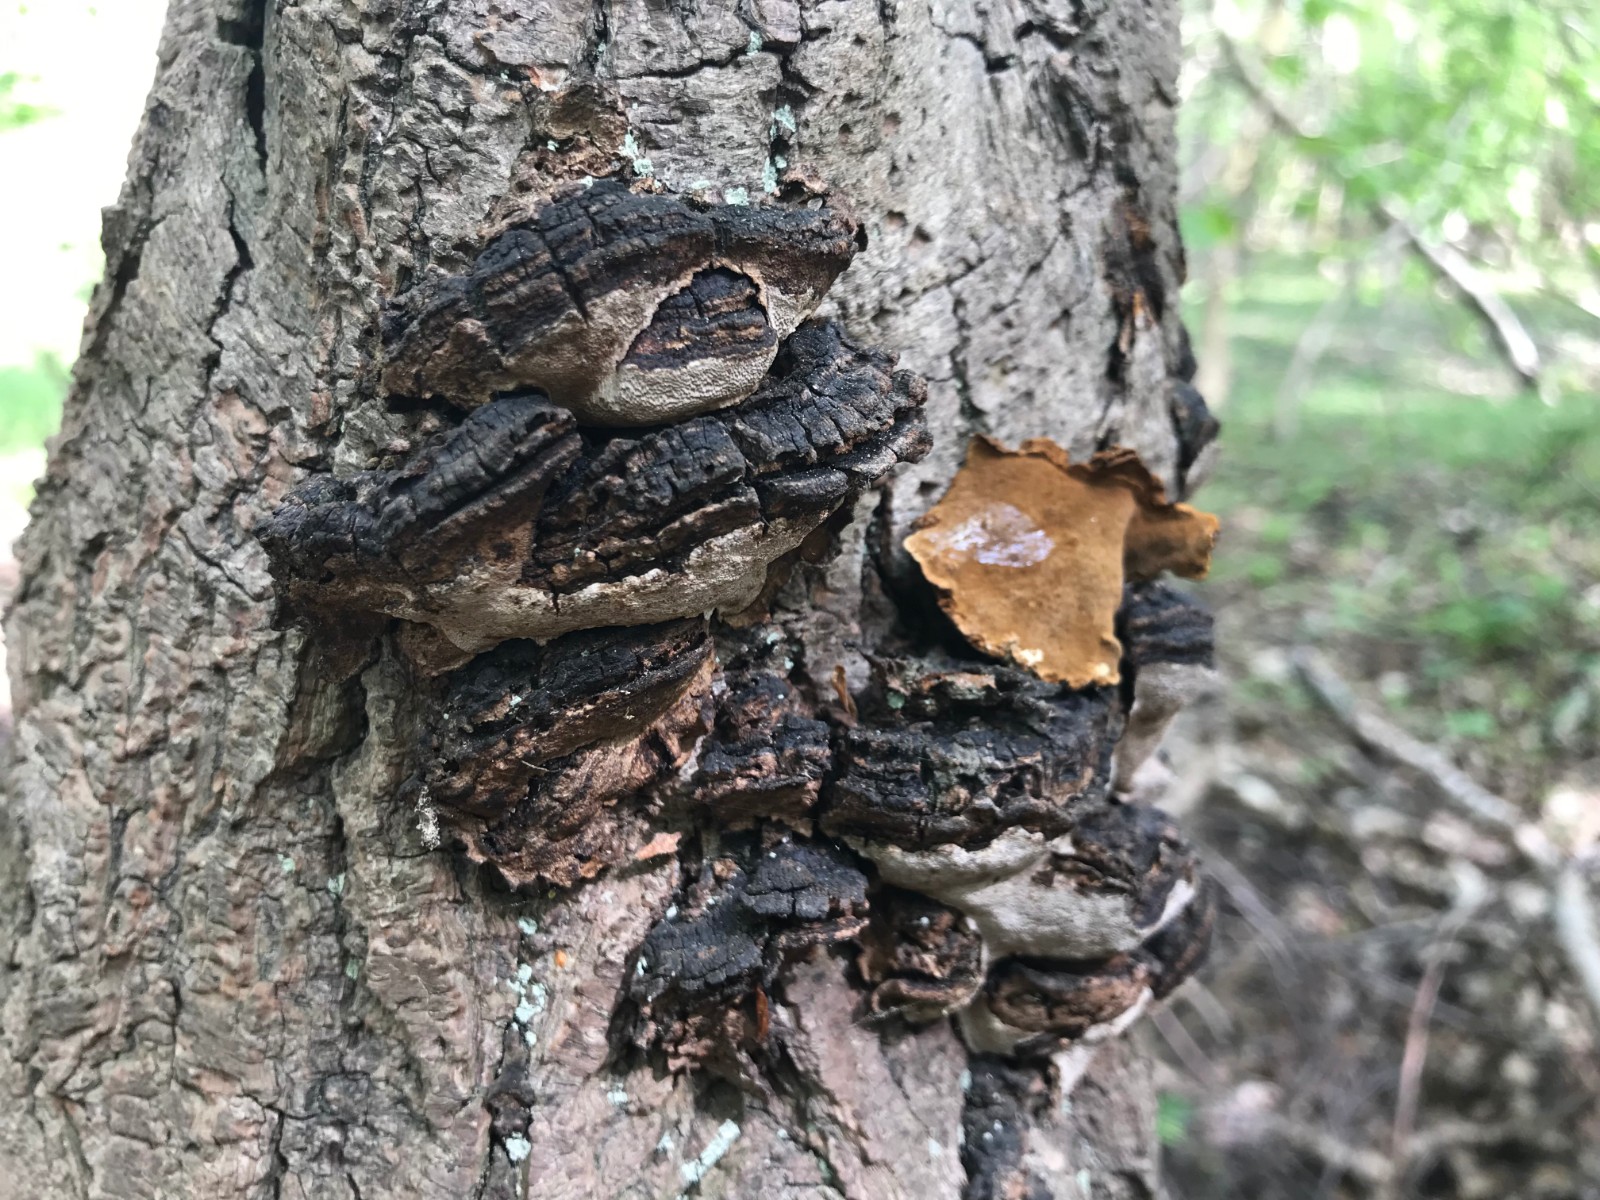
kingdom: Fungi
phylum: Basidiomycota
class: Agaricomycetes
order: Hymenochaetales
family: Hymenochaetaceae
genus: Phellinopsis
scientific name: Phellinopsis conchata
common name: pile-ildporesvamp
